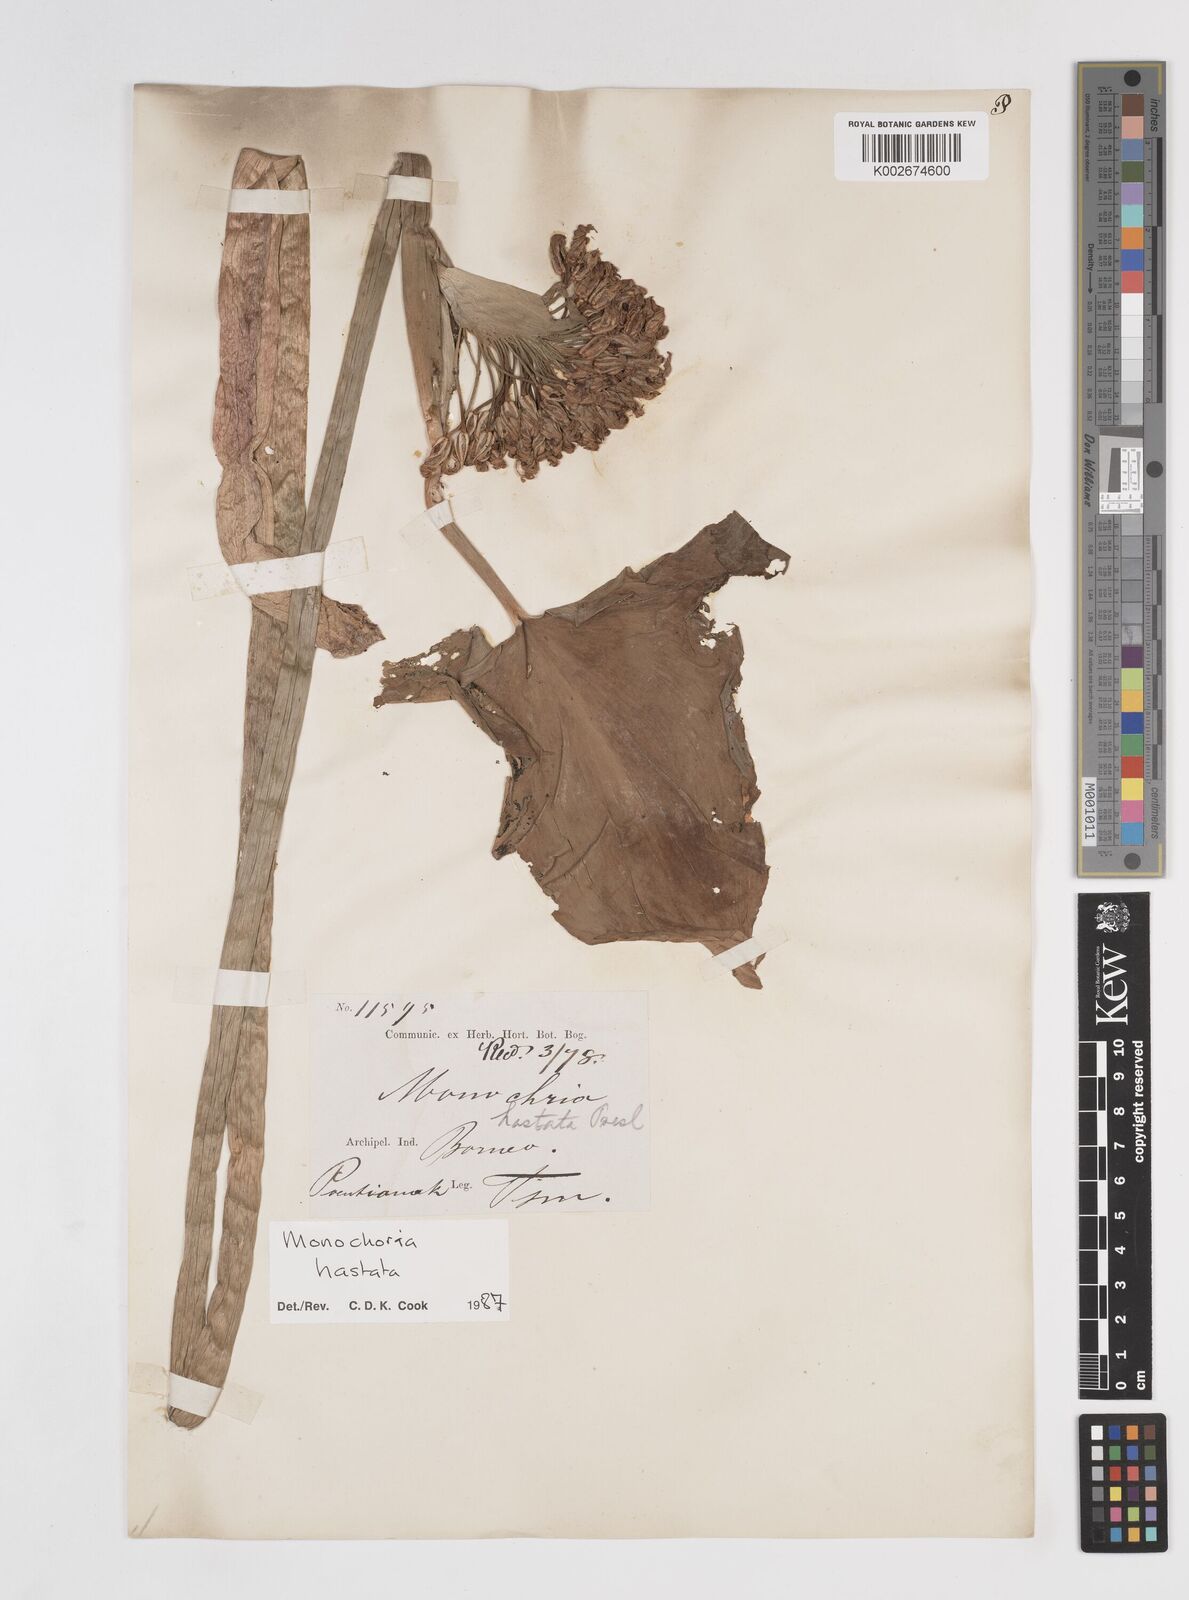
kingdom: Plantae
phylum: Tracheophyta
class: Liliopsida
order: Commelinales
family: Pontederiaceae
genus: Pontederia
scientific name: Pontederia hastata
